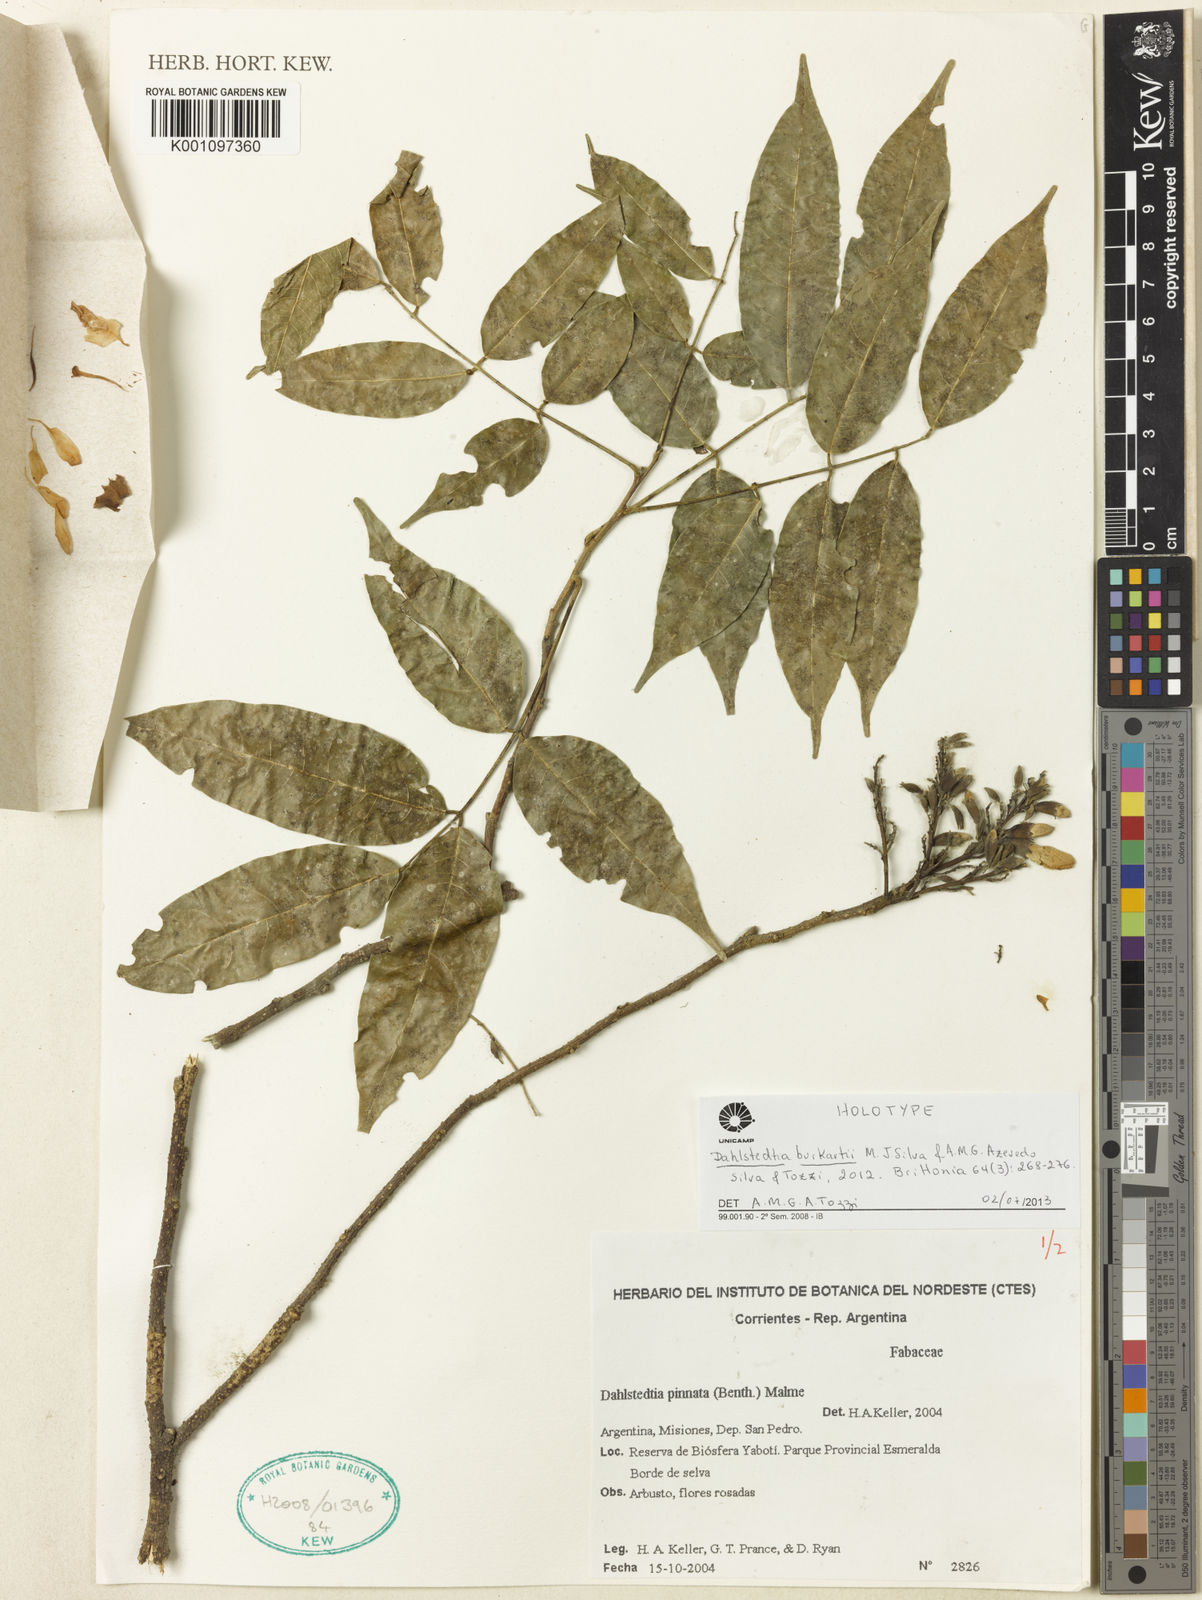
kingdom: Plantae
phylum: Tracheophyta
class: Magnoliopsida
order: Fabales
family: Fabaceae
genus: Dahlstedtia
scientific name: Dahlstedtia burkartii
